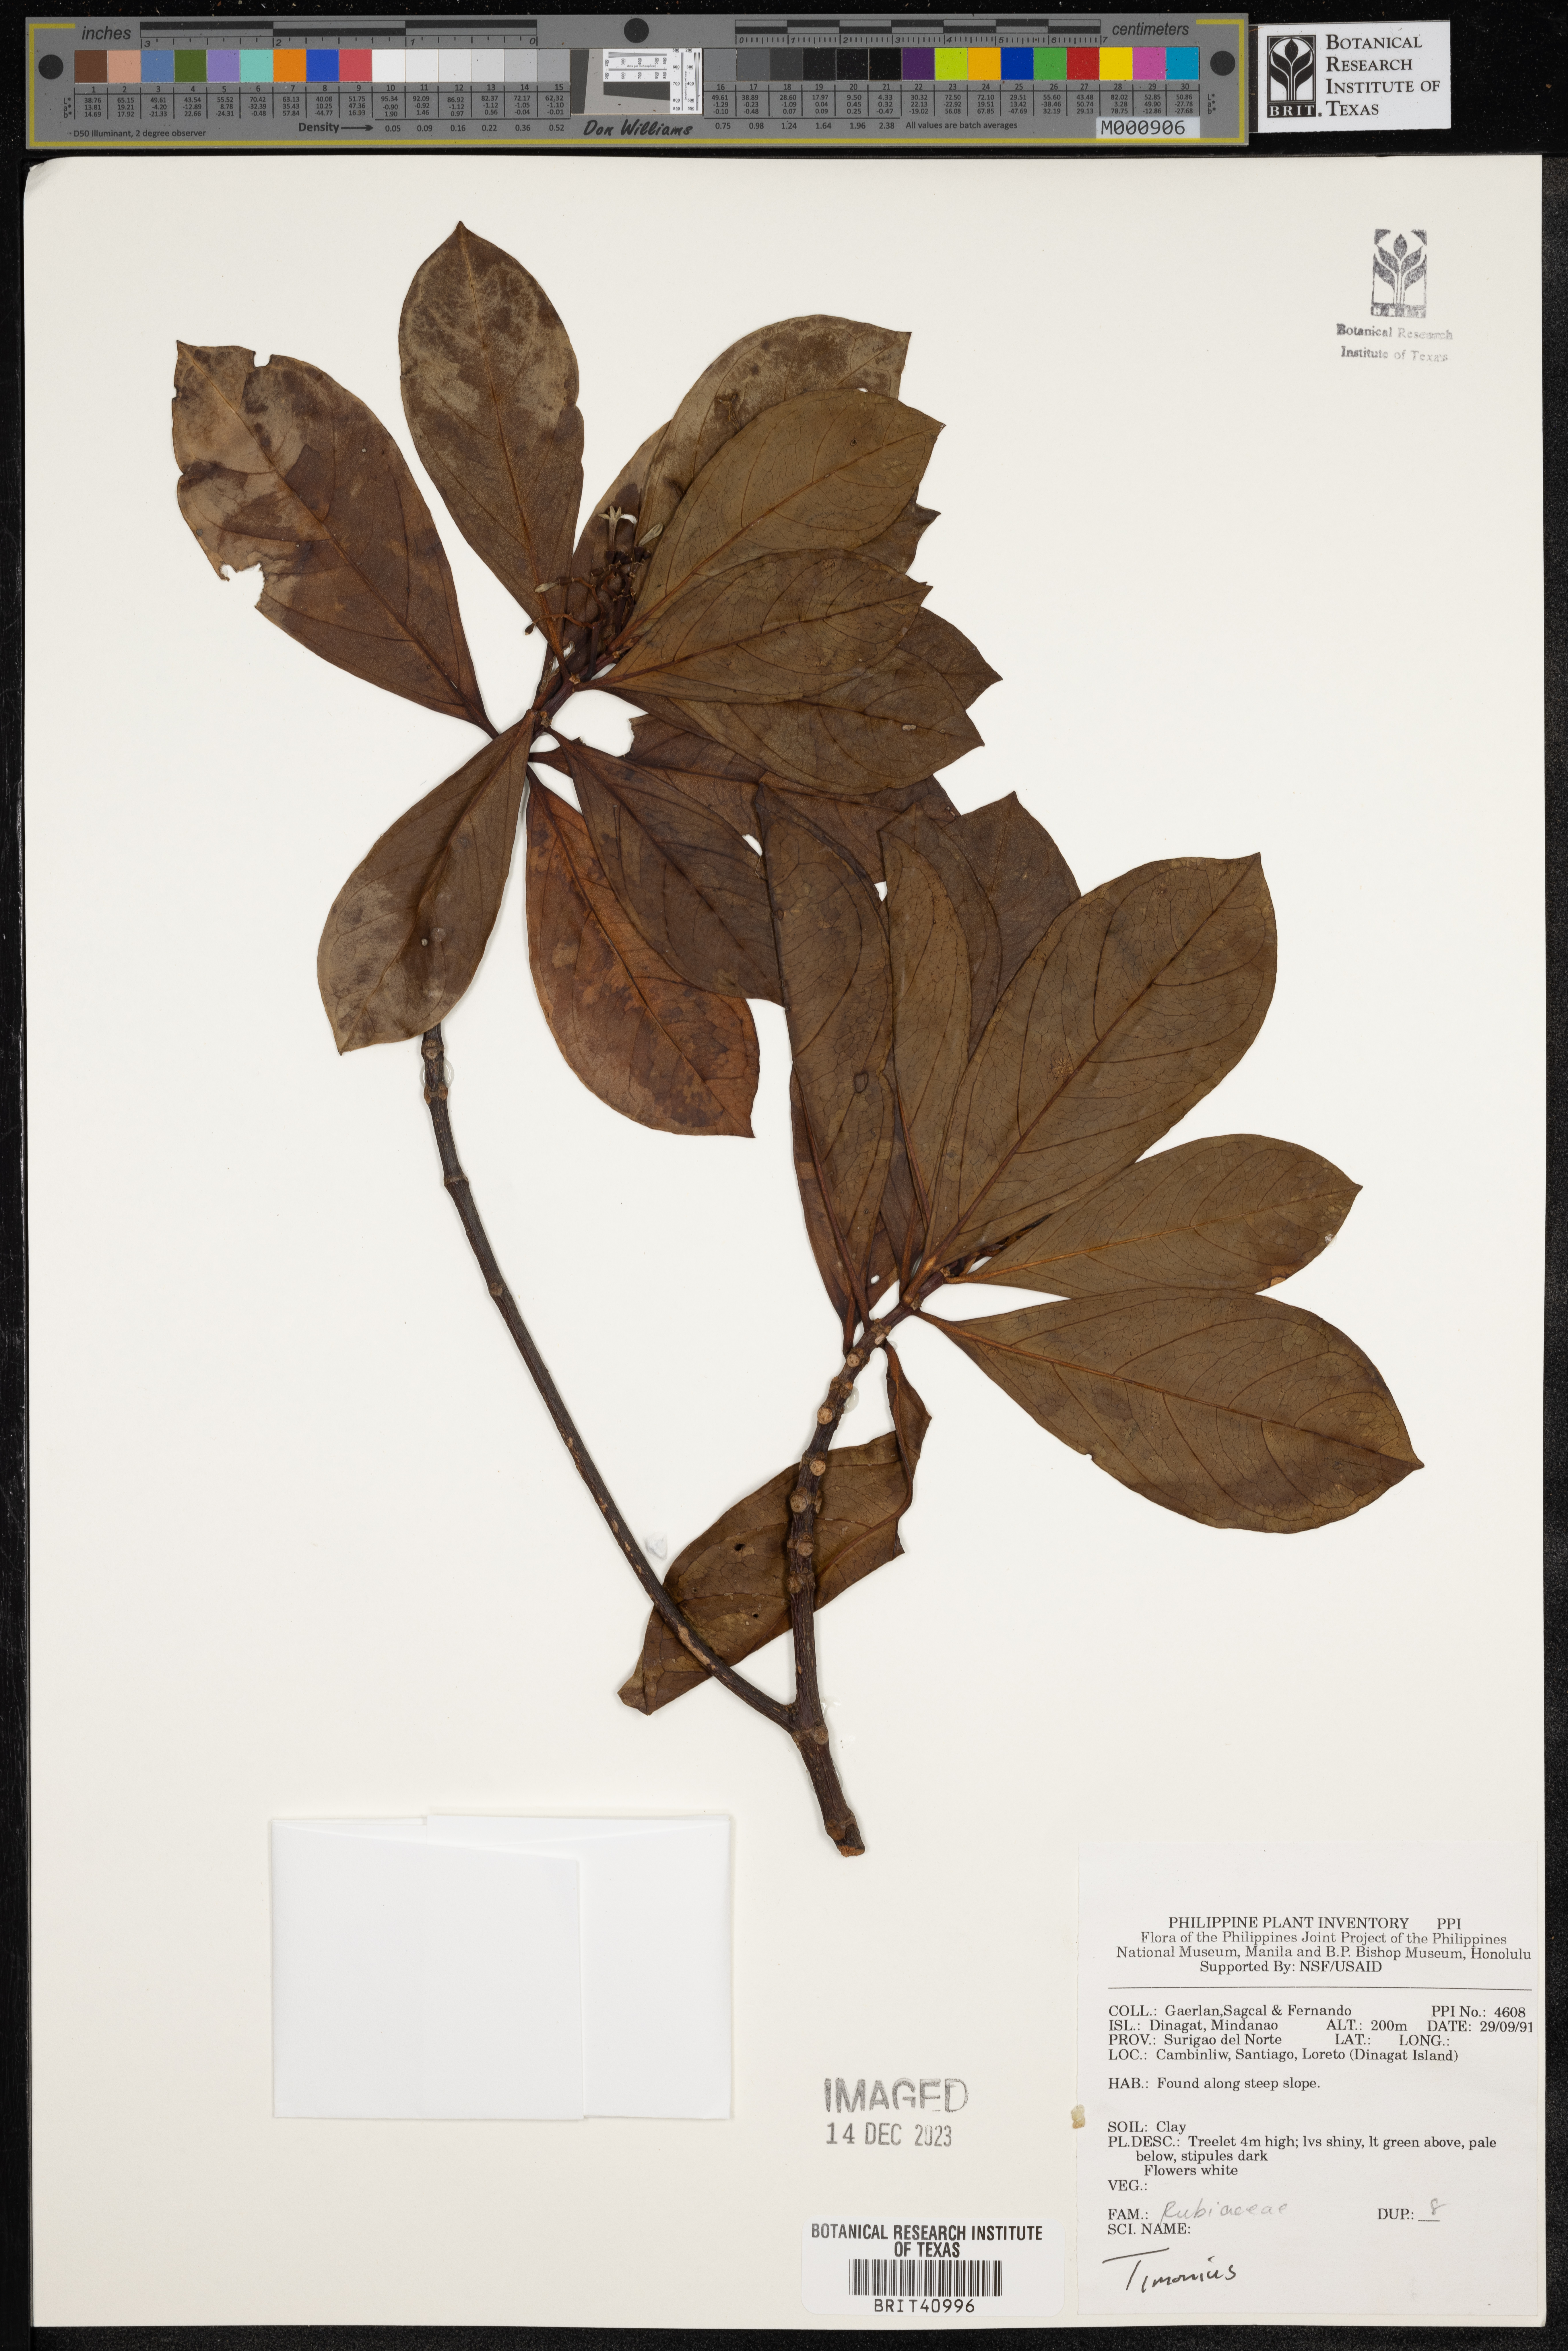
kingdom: Plantae
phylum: Tracheophyta
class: Magnoliopsida
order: Gentianales
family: Rubiaceae
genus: Timonius
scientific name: Timonius
